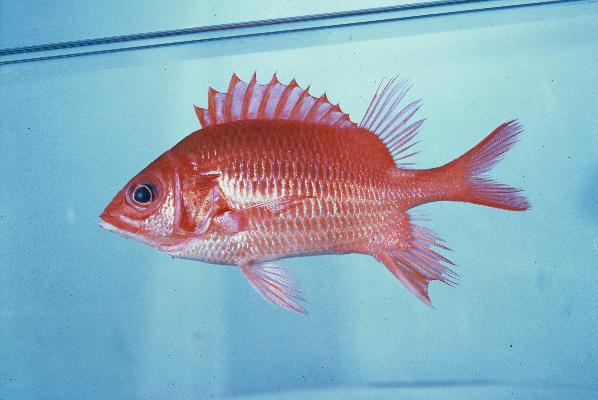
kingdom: Animalia
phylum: Chordata
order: Beryciformes
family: Holocentridae
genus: Sargocentron
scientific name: Sargocentron caudimaculatum
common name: Fanfin soldier
